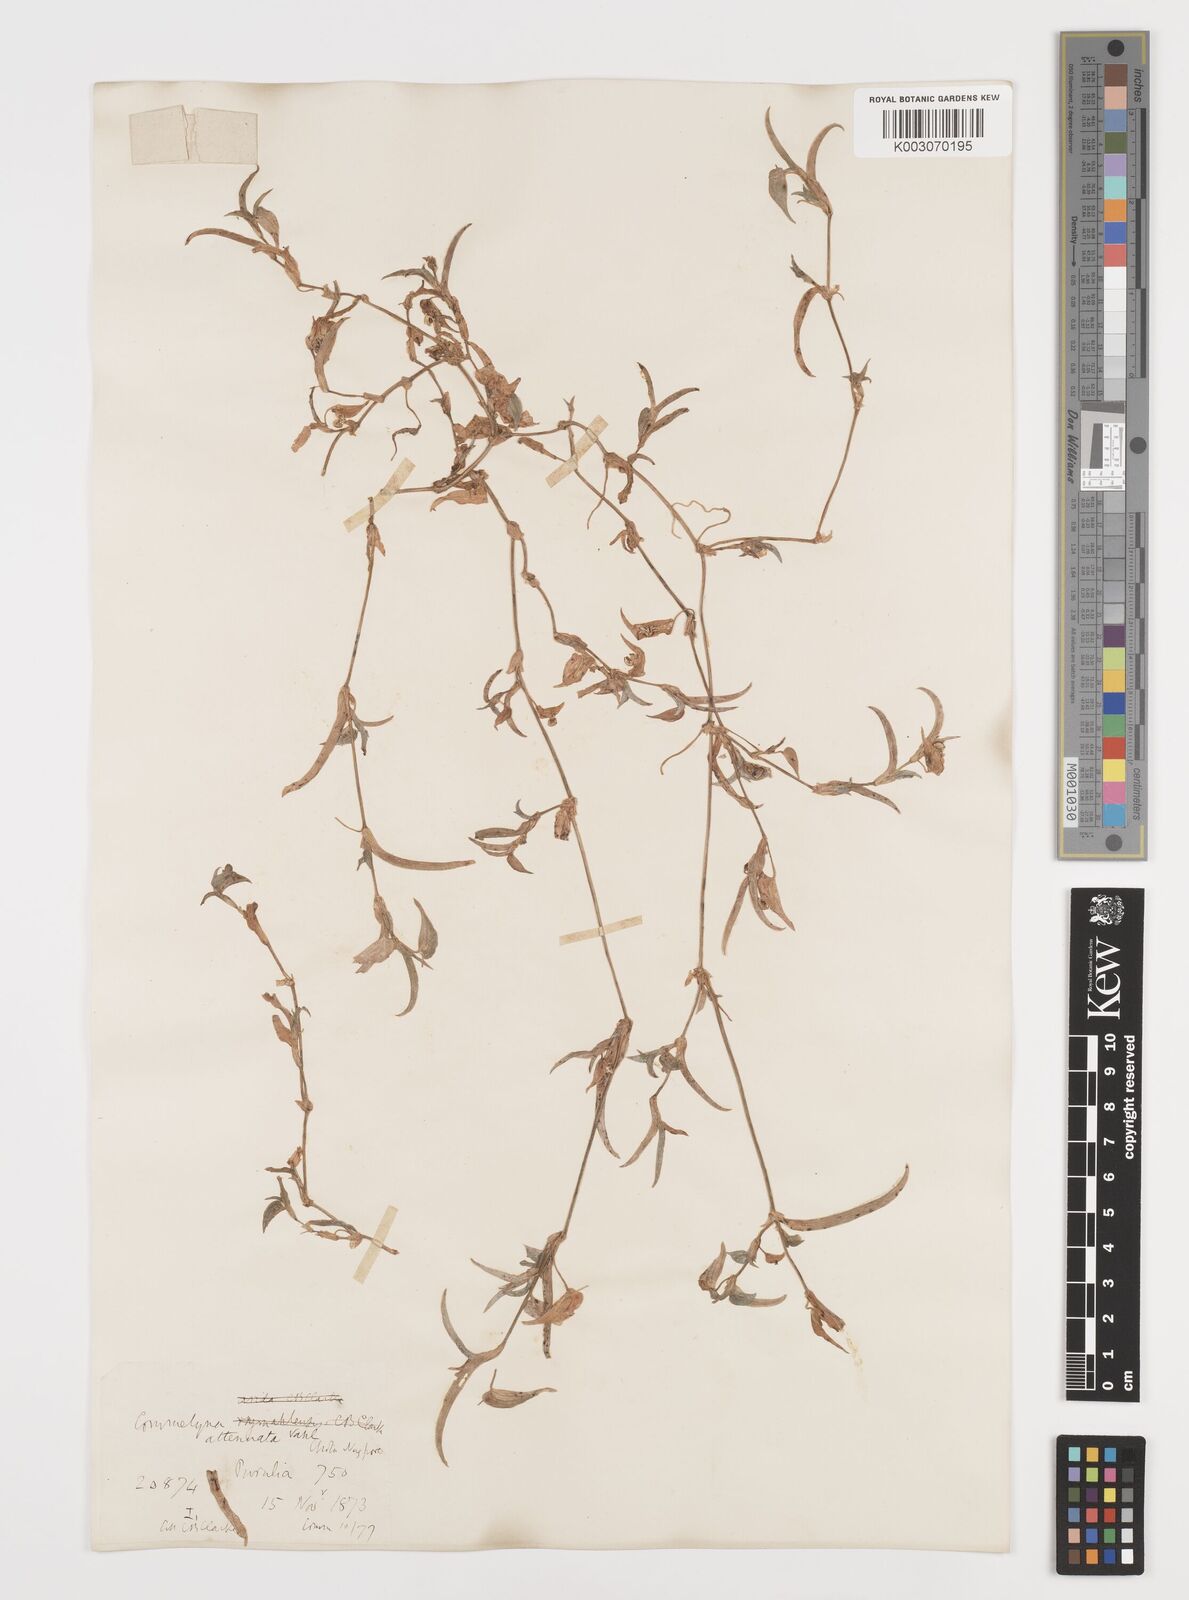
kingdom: Plantae
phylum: Tracheophyta
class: Liliopsida
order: Commelinales
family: Commelinaceae
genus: Commelina
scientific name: Commelina attenuata
